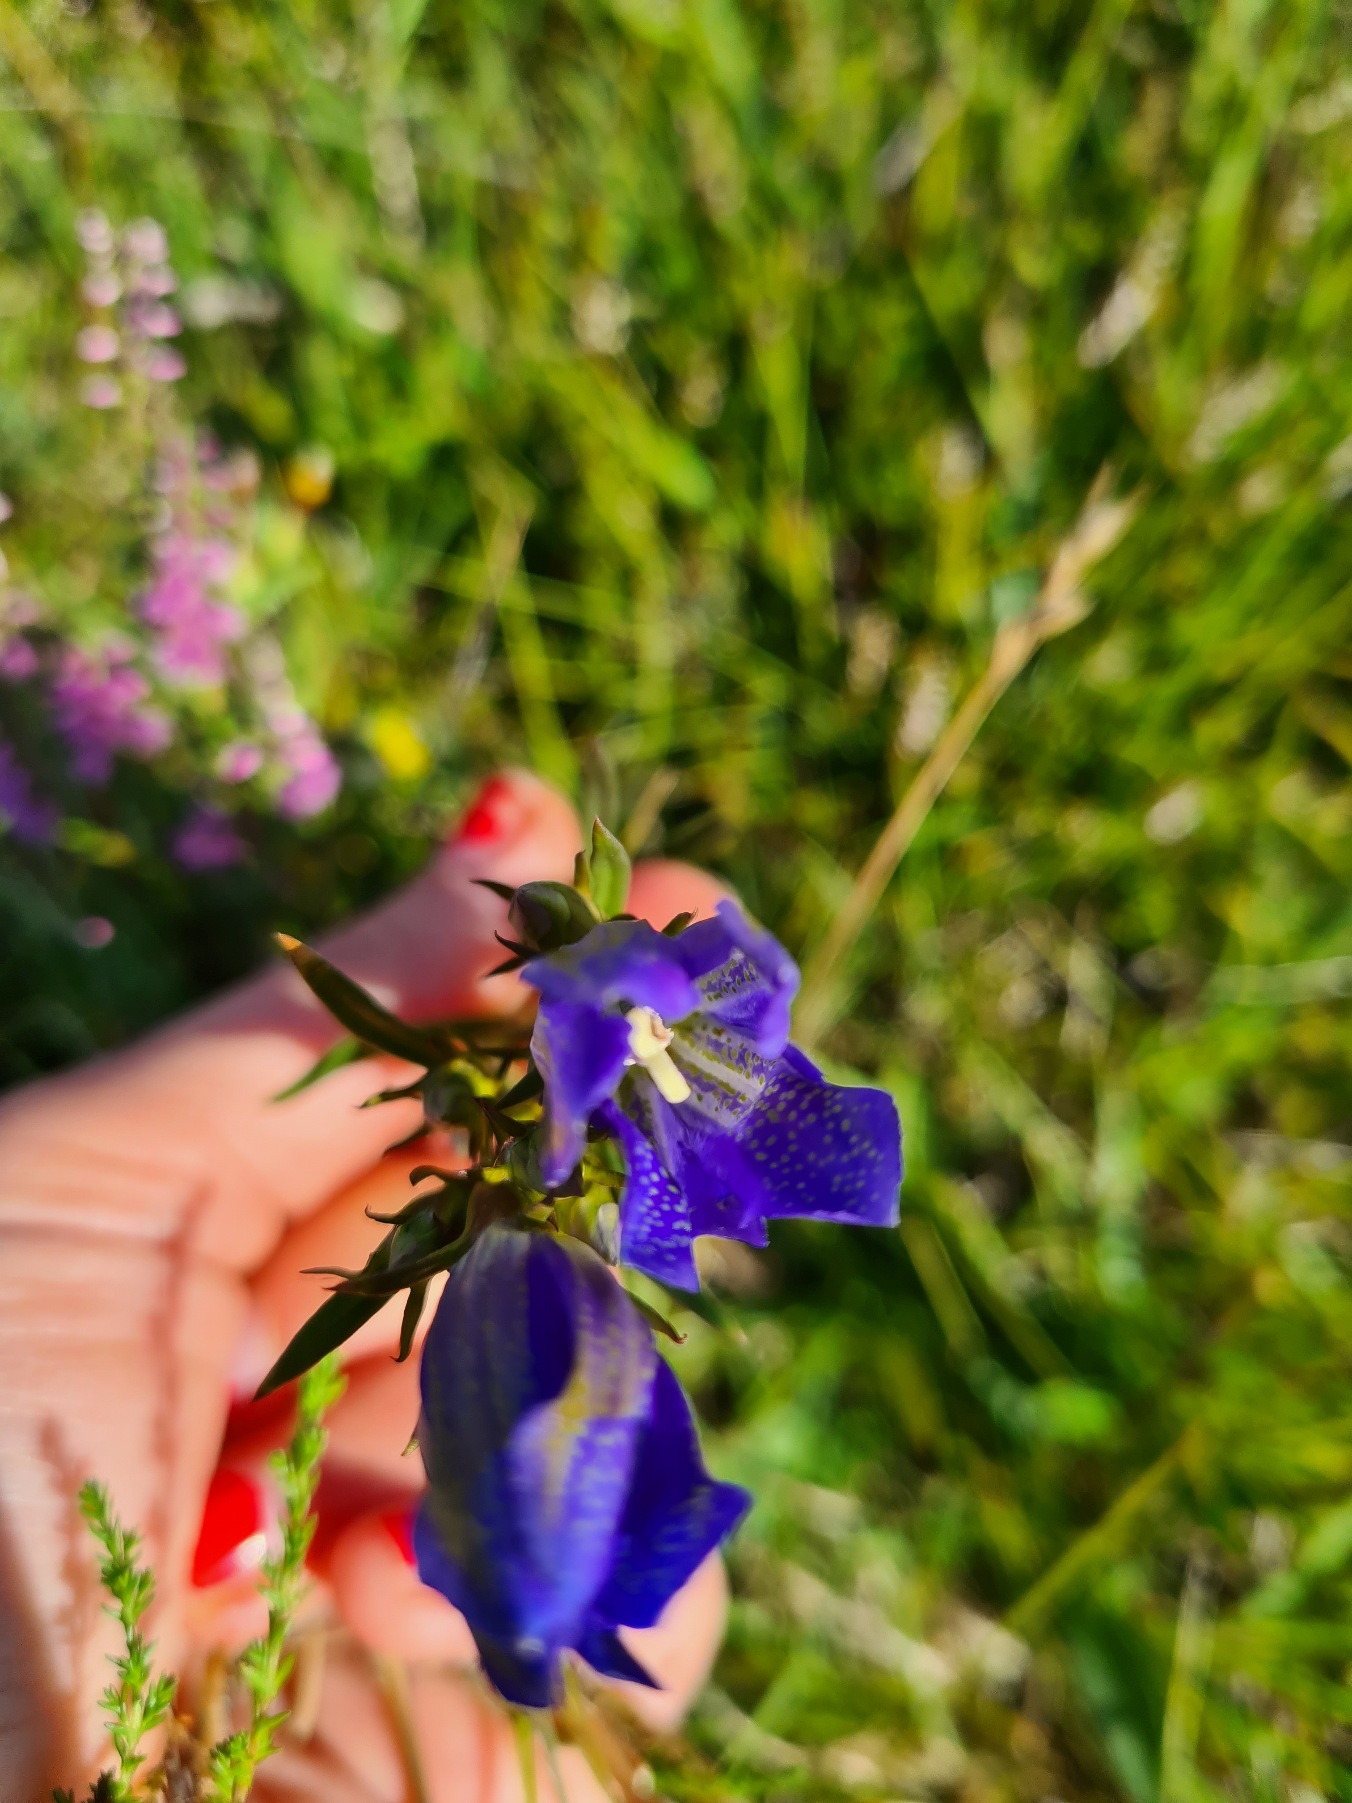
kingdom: Plantae
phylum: Tracheophyta
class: Magnoliopsida
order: Gentianales
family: Gentianaceae
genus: Gentiana
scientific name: Gentiana pneumonanthe
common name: Klokke-ensian
